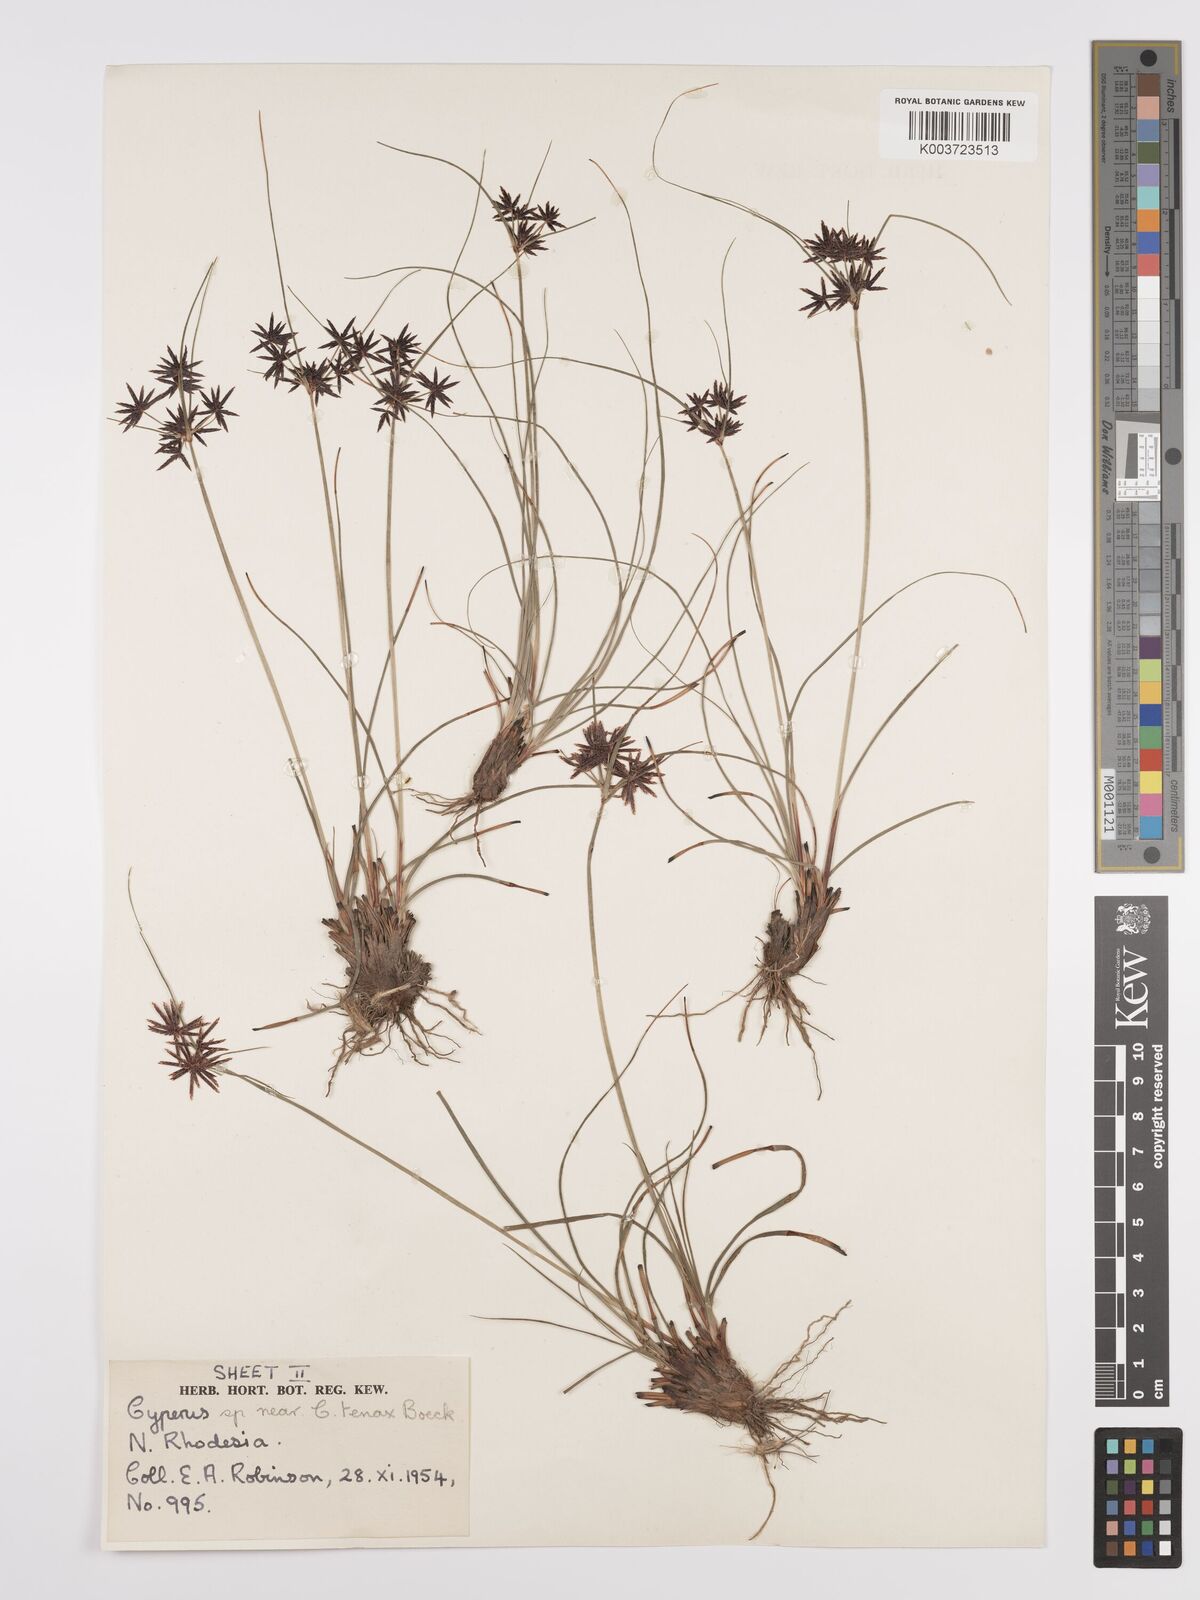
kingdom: Plantae
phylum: Tracheophyta
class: Liliopsida
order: Poales
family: Cyperaceae
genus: Cyperus
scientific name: Cyperus tenax
